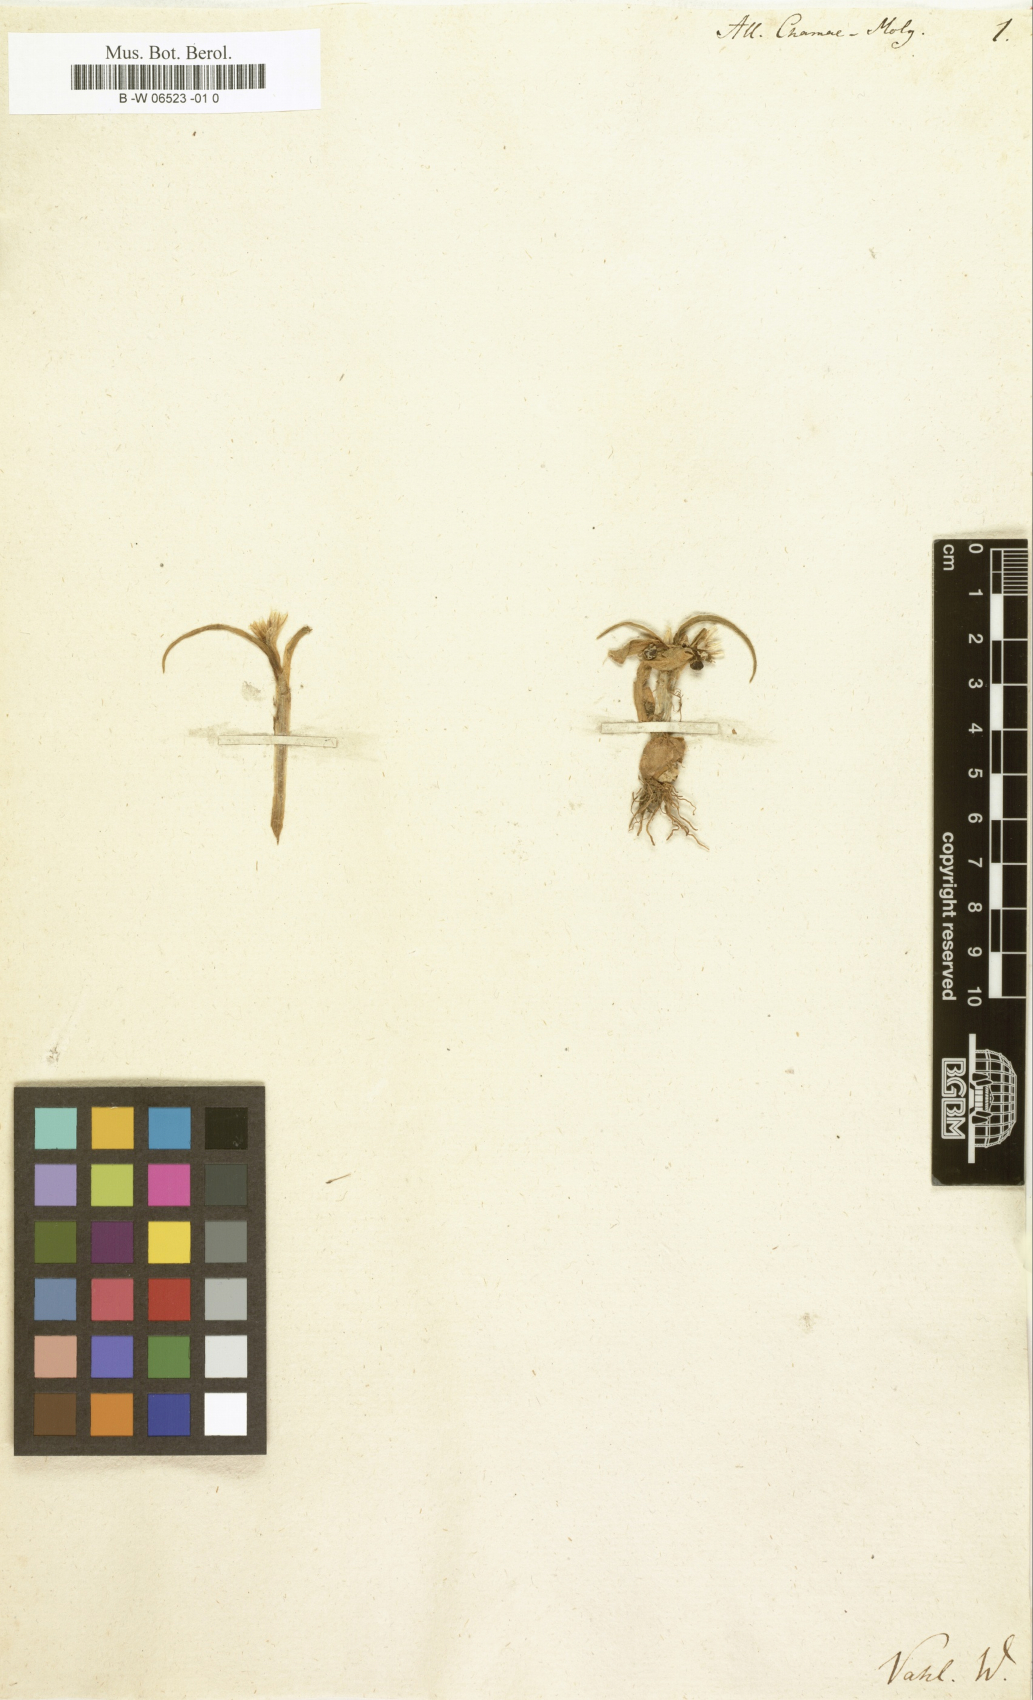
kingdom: Plantae
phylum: Tracheophyta
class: Liliopsida
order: Asparagales
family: Amaryllidaceae
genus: Allium
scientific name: Allium chamaemoly
